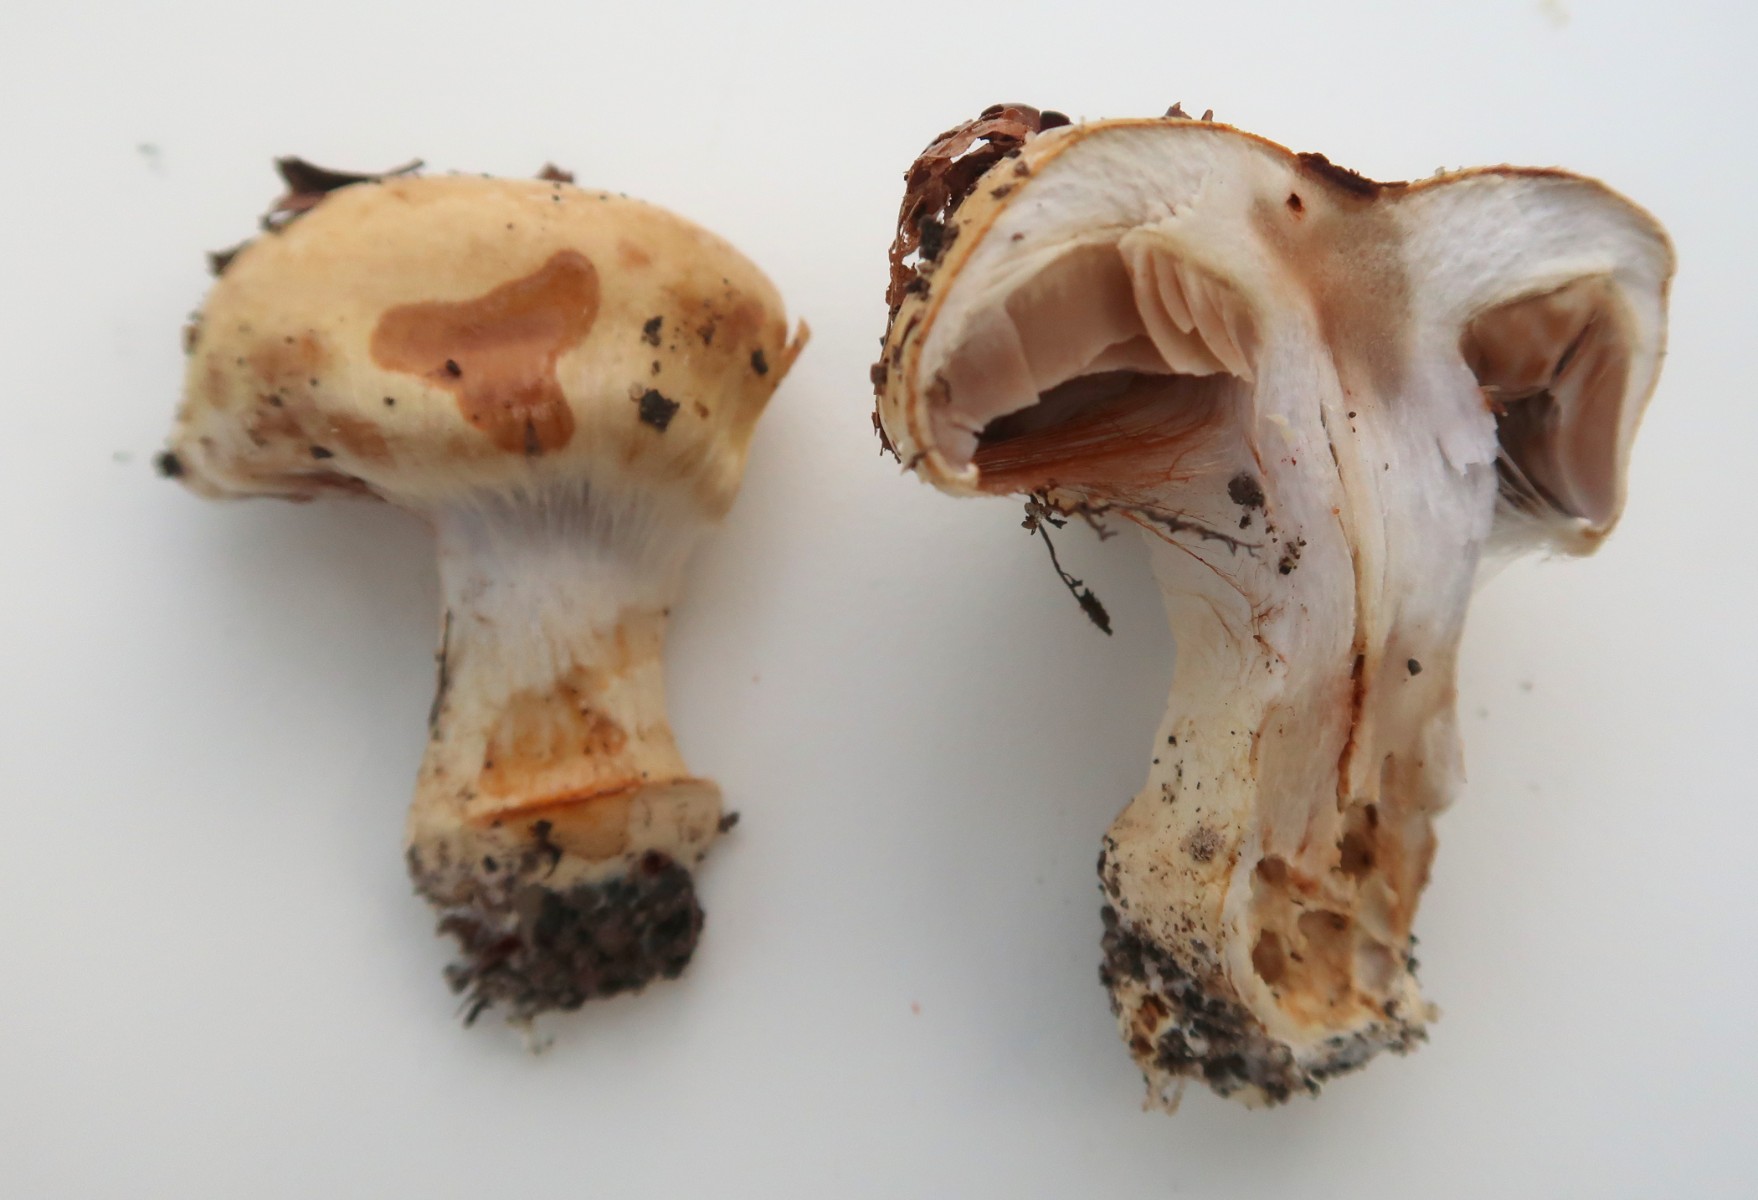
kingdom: Fungi
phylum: Basidiomycota
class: Agaricomycetes
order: Agaricales
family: Cortinariaceae
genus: Cortinarius
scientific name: Cortinarius anserinus
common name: bøge-slørhat
